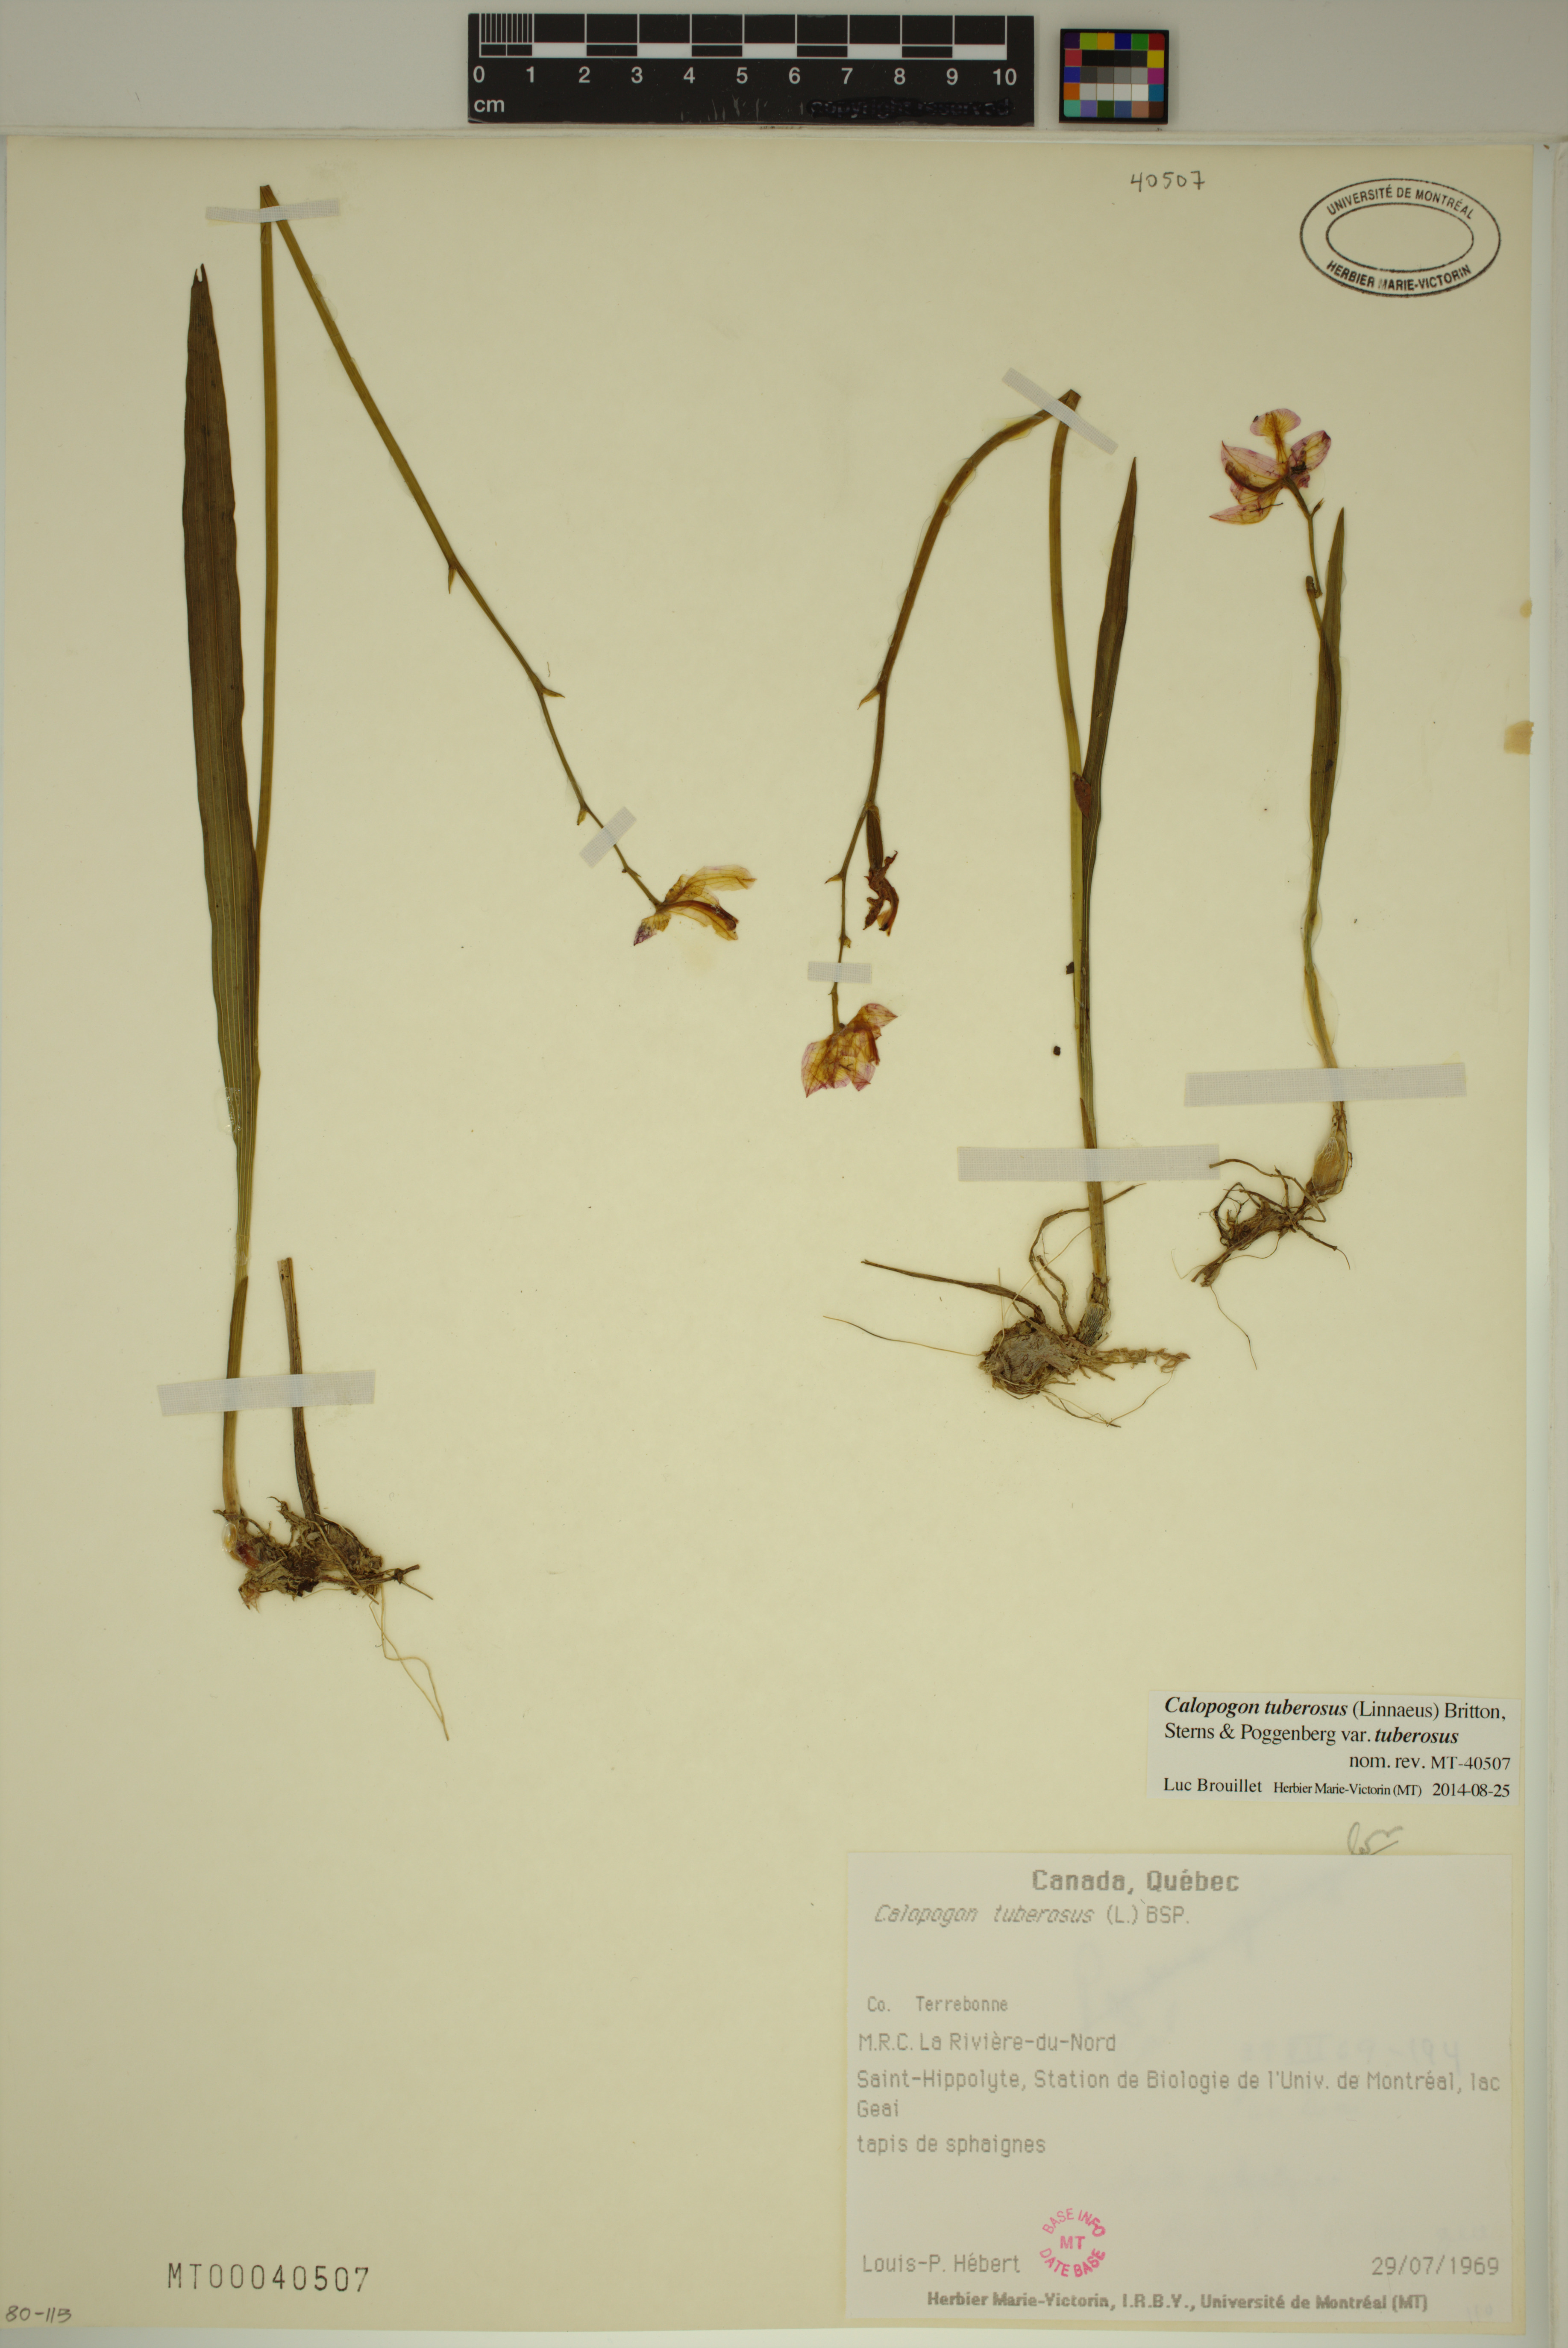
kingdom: Plantae
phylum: Tracheophyta
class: Liliopsida
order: Asparagales
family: Orchidaceae
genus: Calopogon
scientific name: Calopogon tuberosus
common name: Grass-pink
